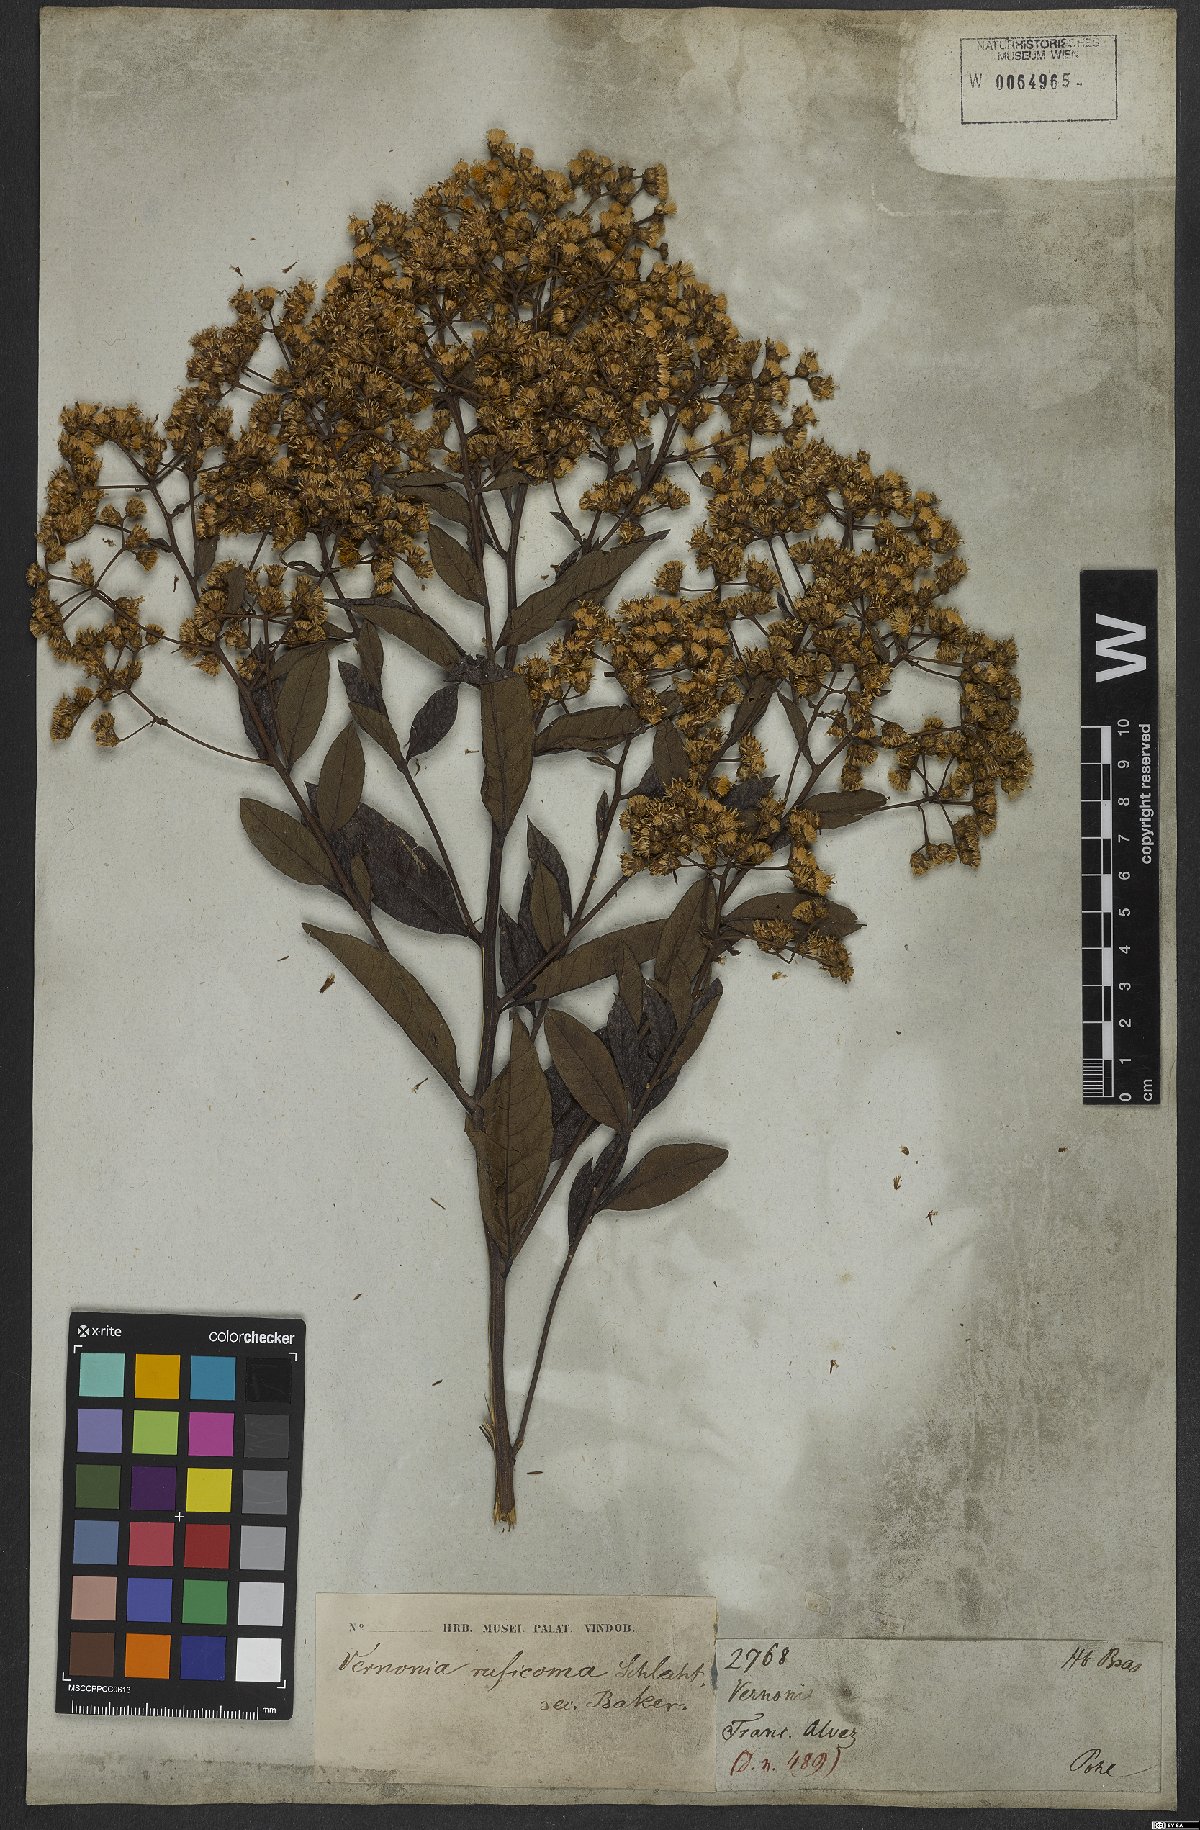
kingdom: Plantae
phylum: Tracheophyta
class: Magnoliopsida
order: Asterales
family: Asteraceae
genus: Vernonanthura
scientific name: Vernonanthura membranacea
